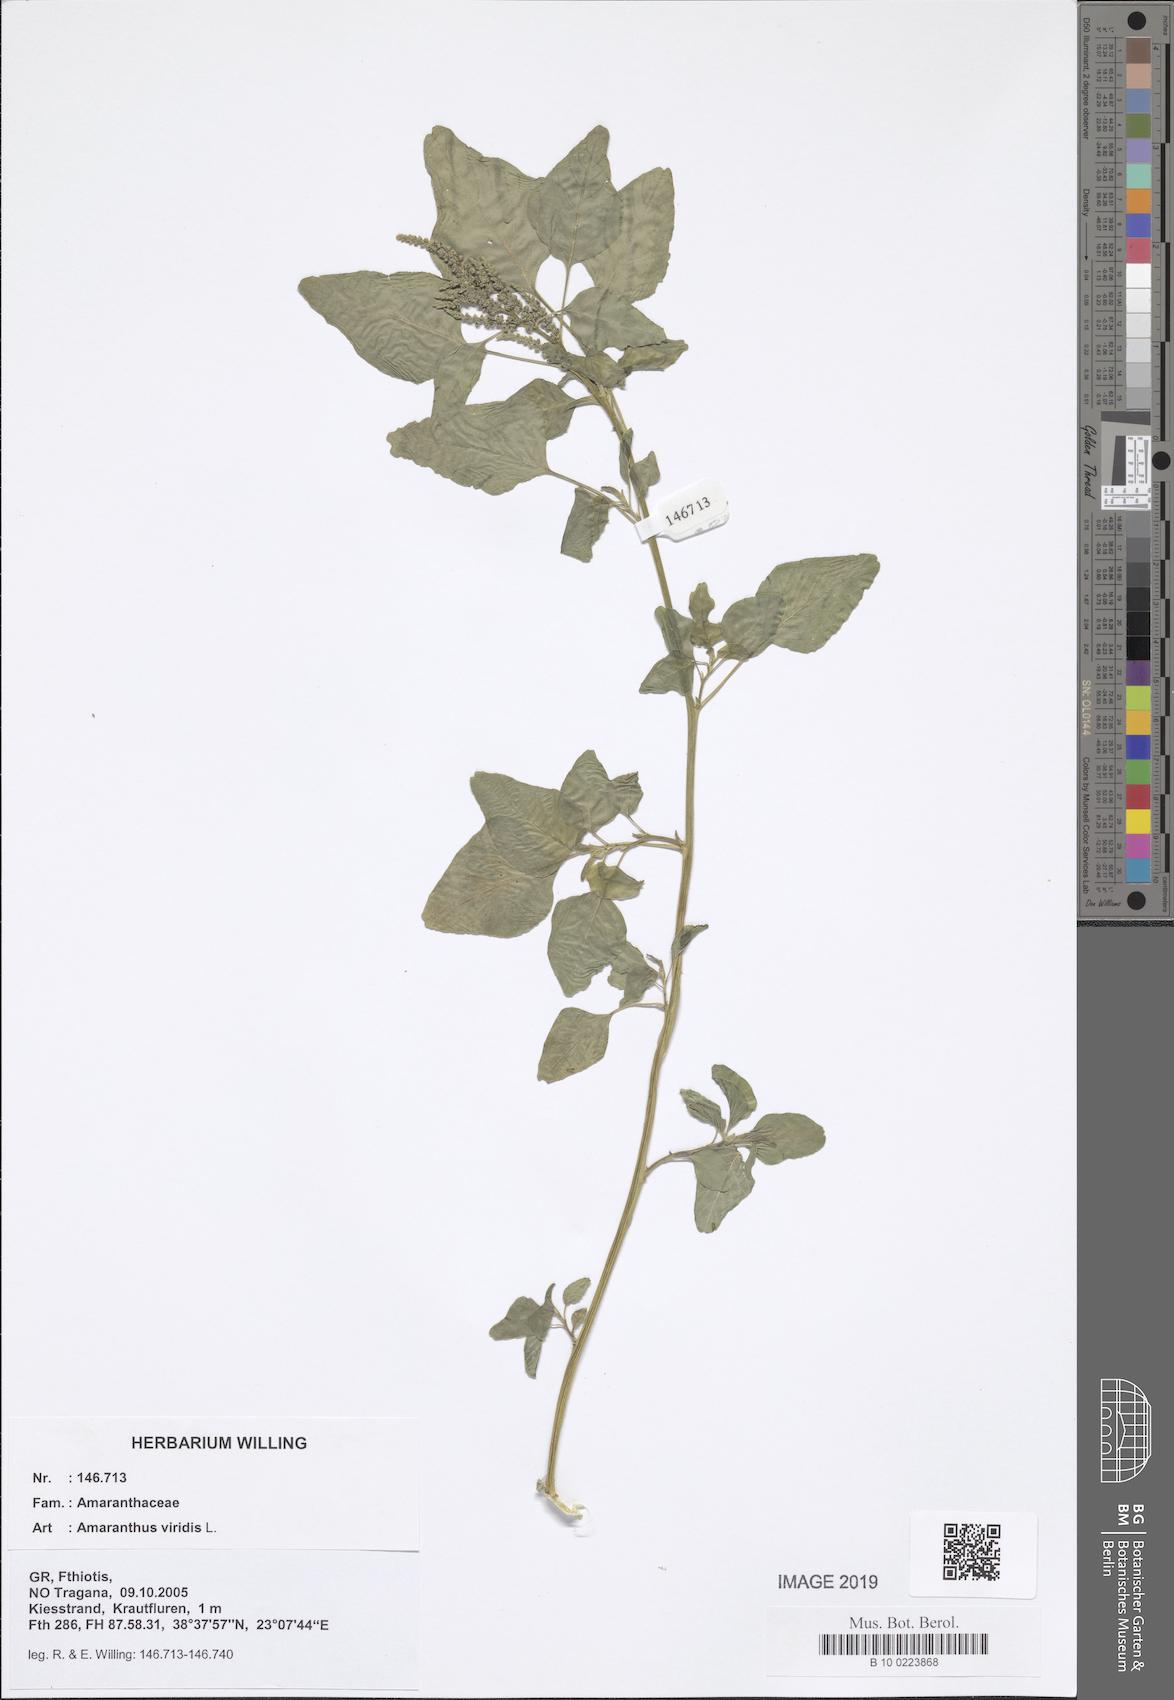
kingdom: Plantae
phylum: Tracheophyta
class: Magnoliopsida
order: Caryophyllales
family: Amaranthaceae
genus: Amaranthus
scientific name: Amaranthus viridis
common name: Slender amaranth
